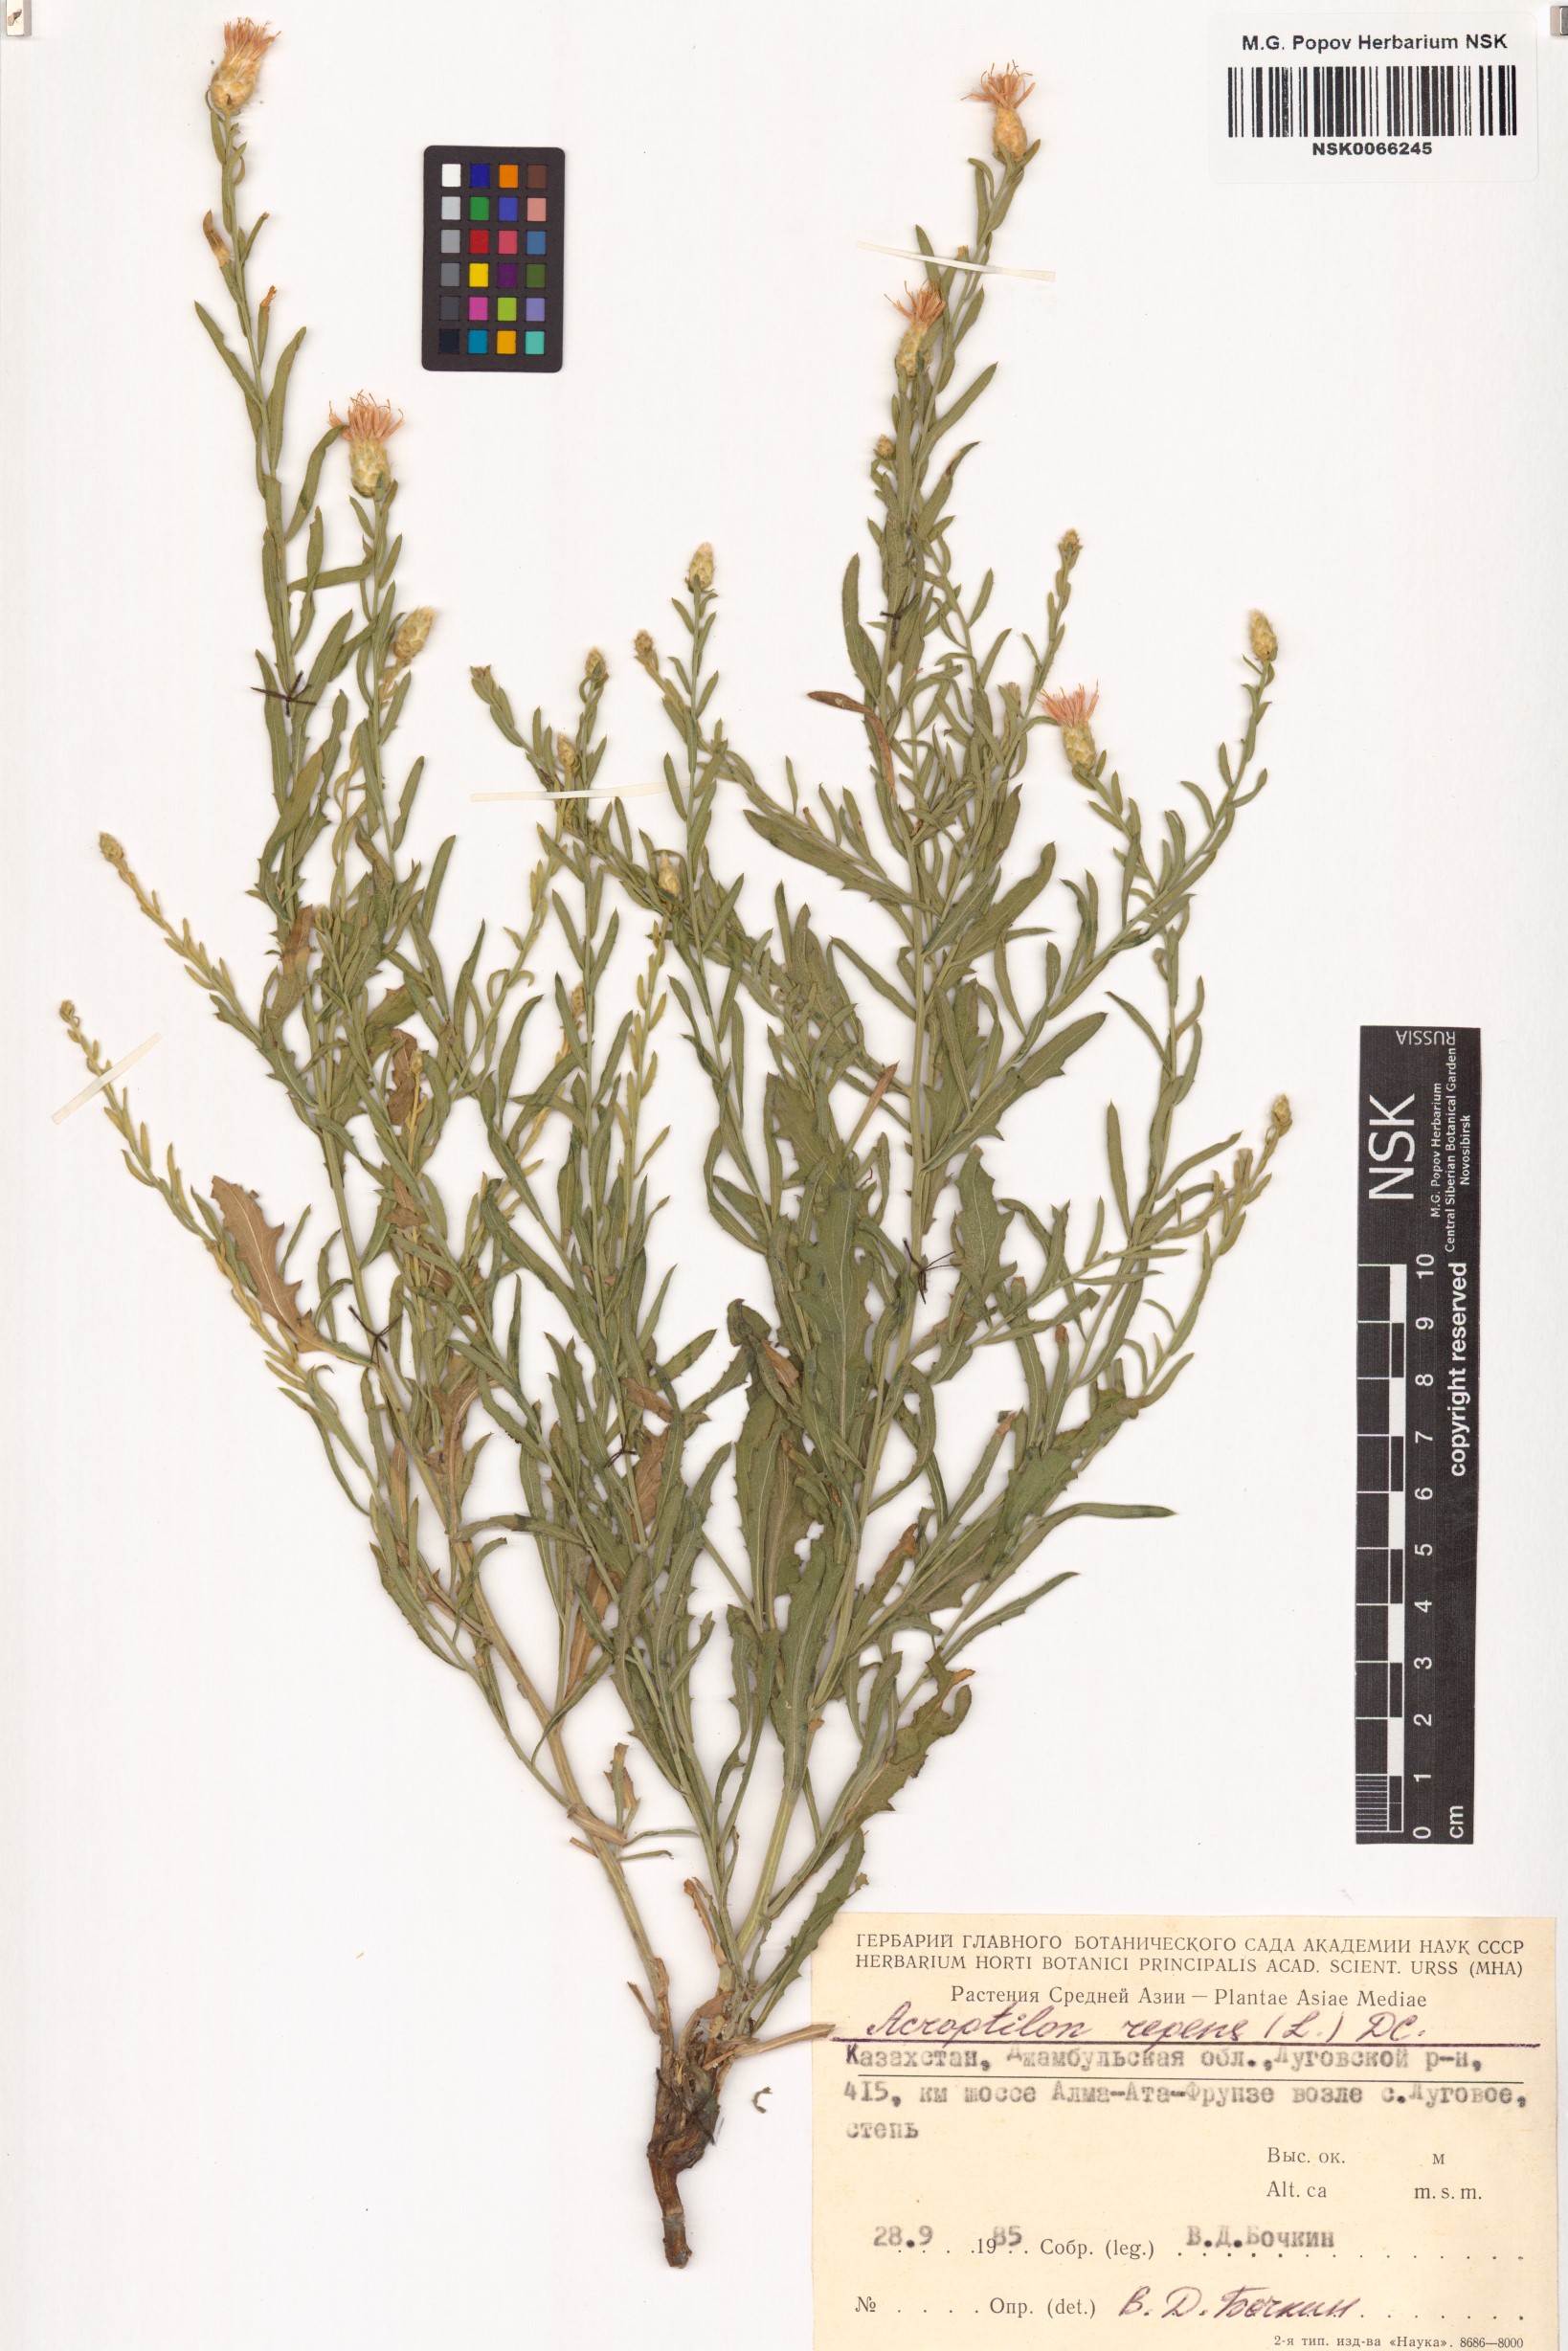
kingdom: Plantae
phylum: Tracheophyta
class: Magnoliopsida
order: Asterales
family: Asteraceae
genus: Leuzea
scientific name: Leuzea repens
